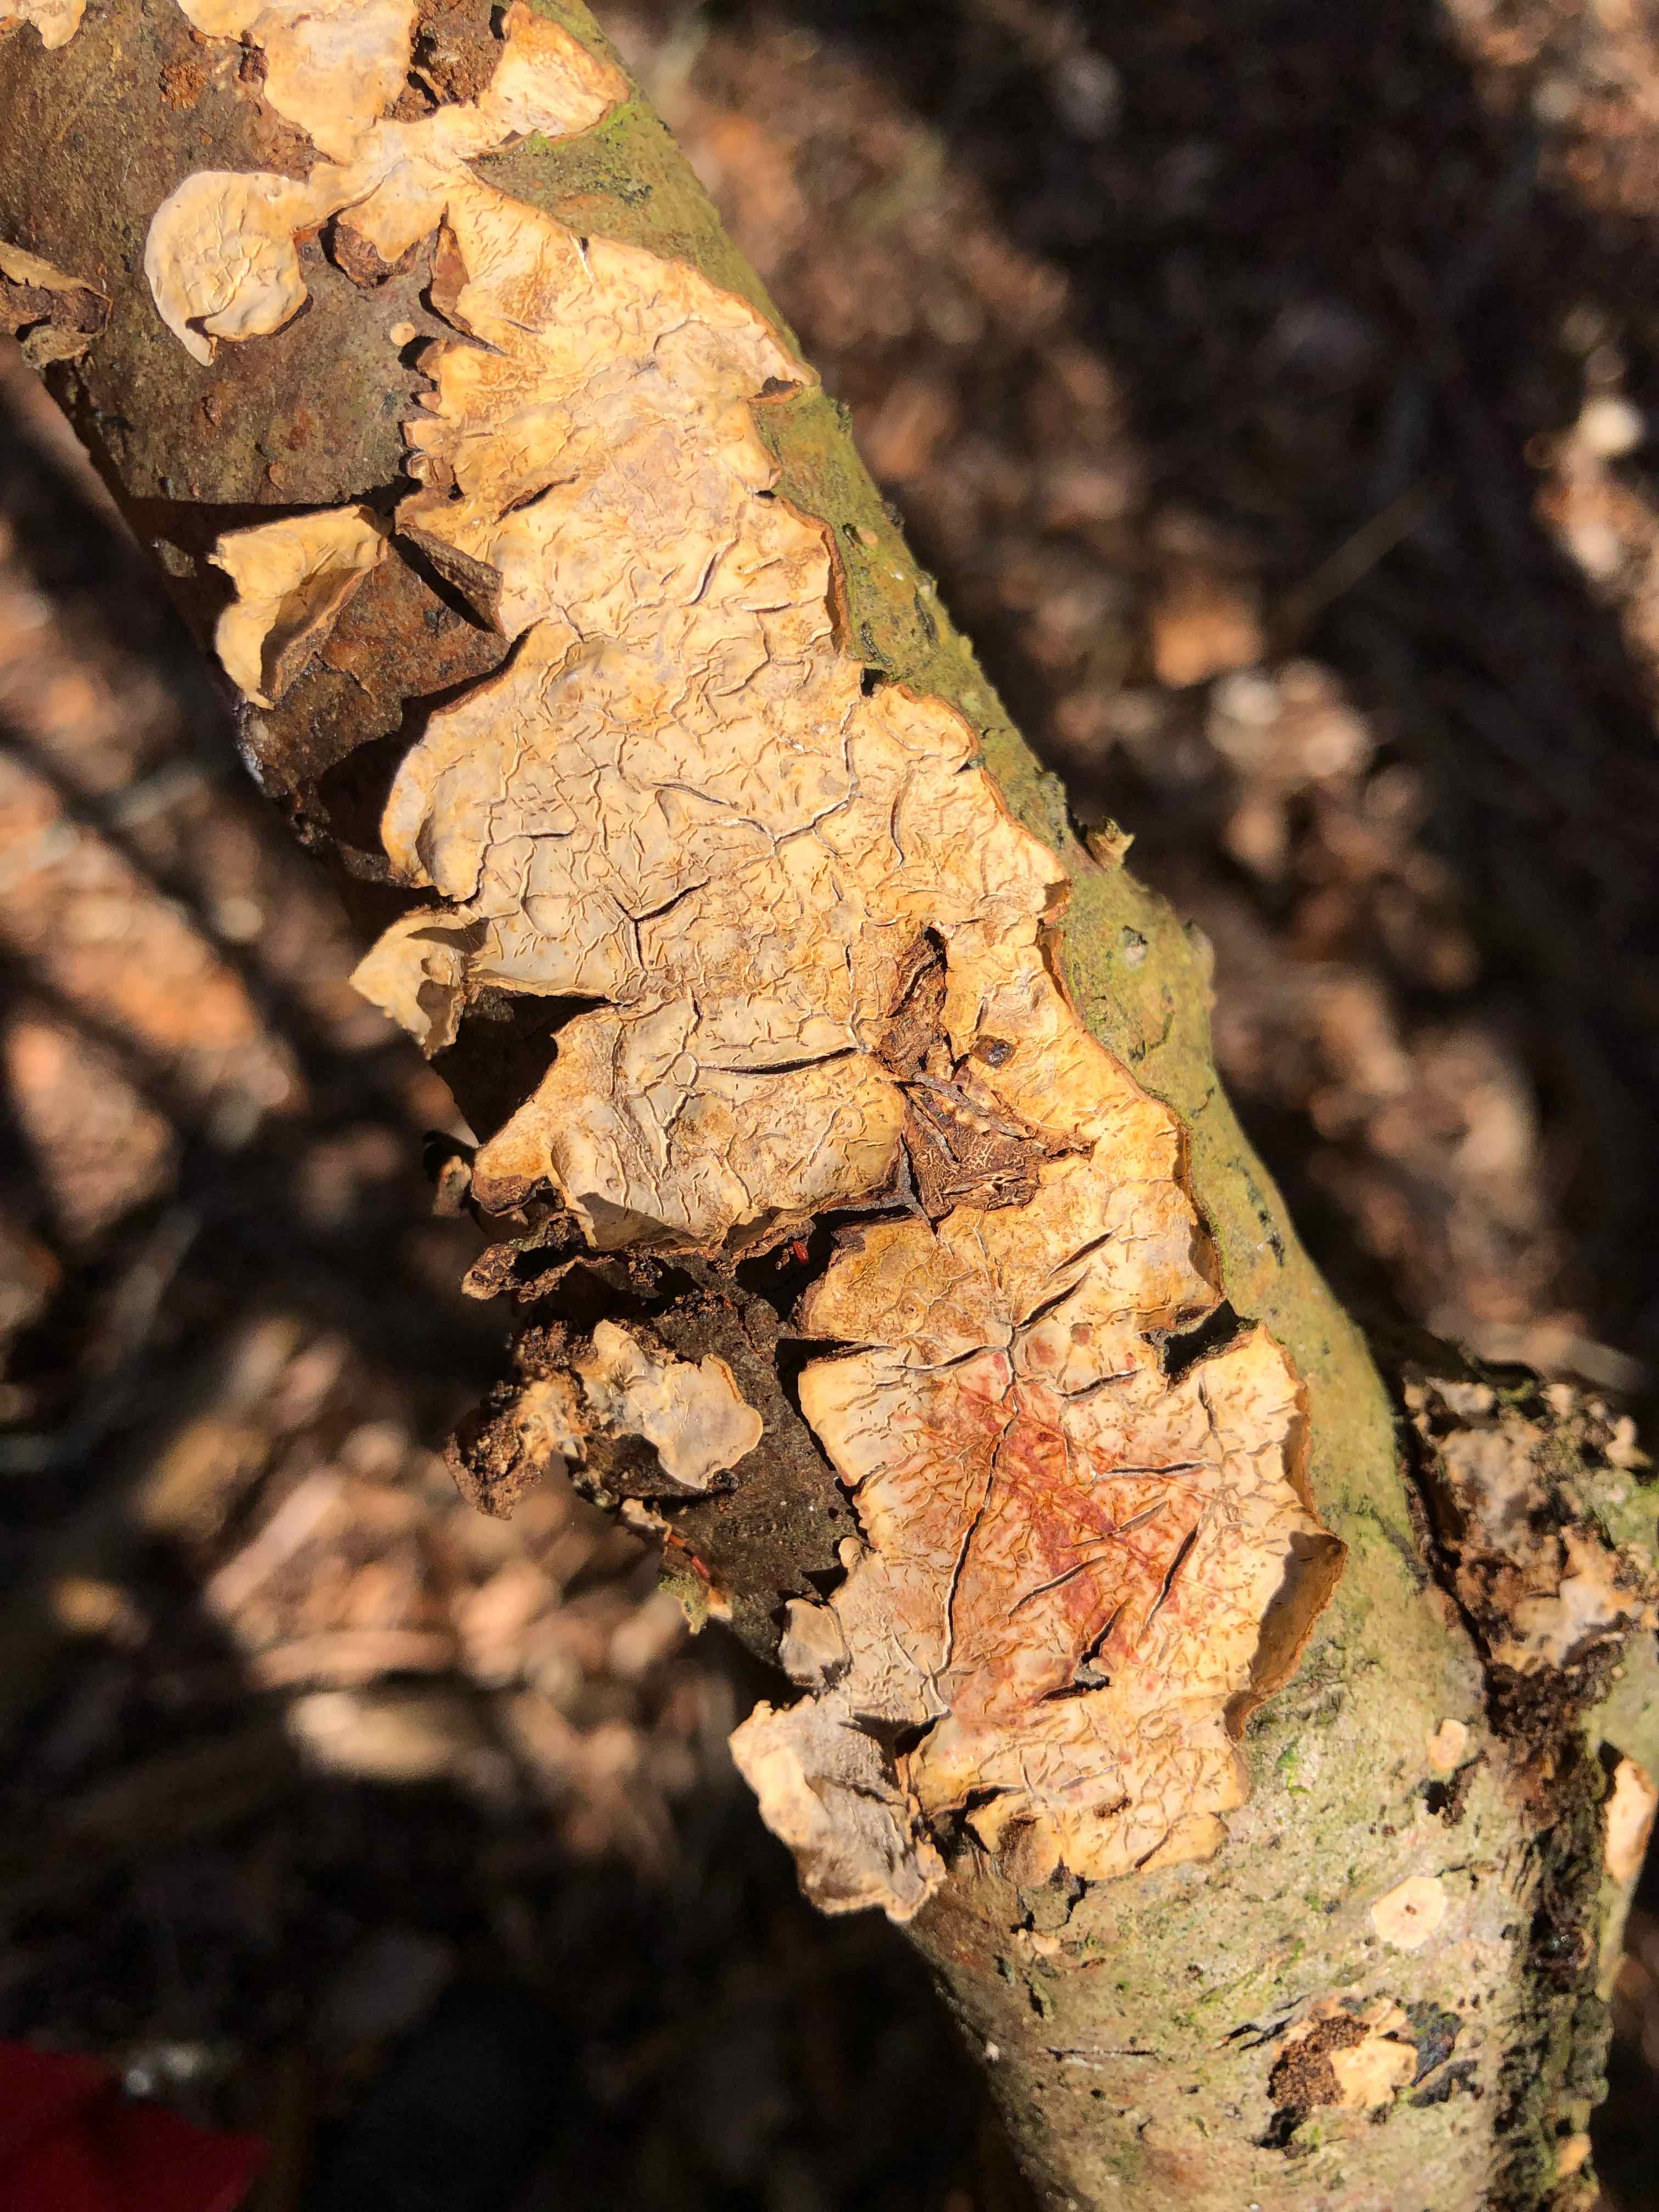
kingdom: Fungi
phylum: Basidiomycota
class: Agaricomycetes
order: Russulales
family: Stereaceae
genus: Stereum
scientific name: Stereum rugosum
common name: rynket lædersvamp
